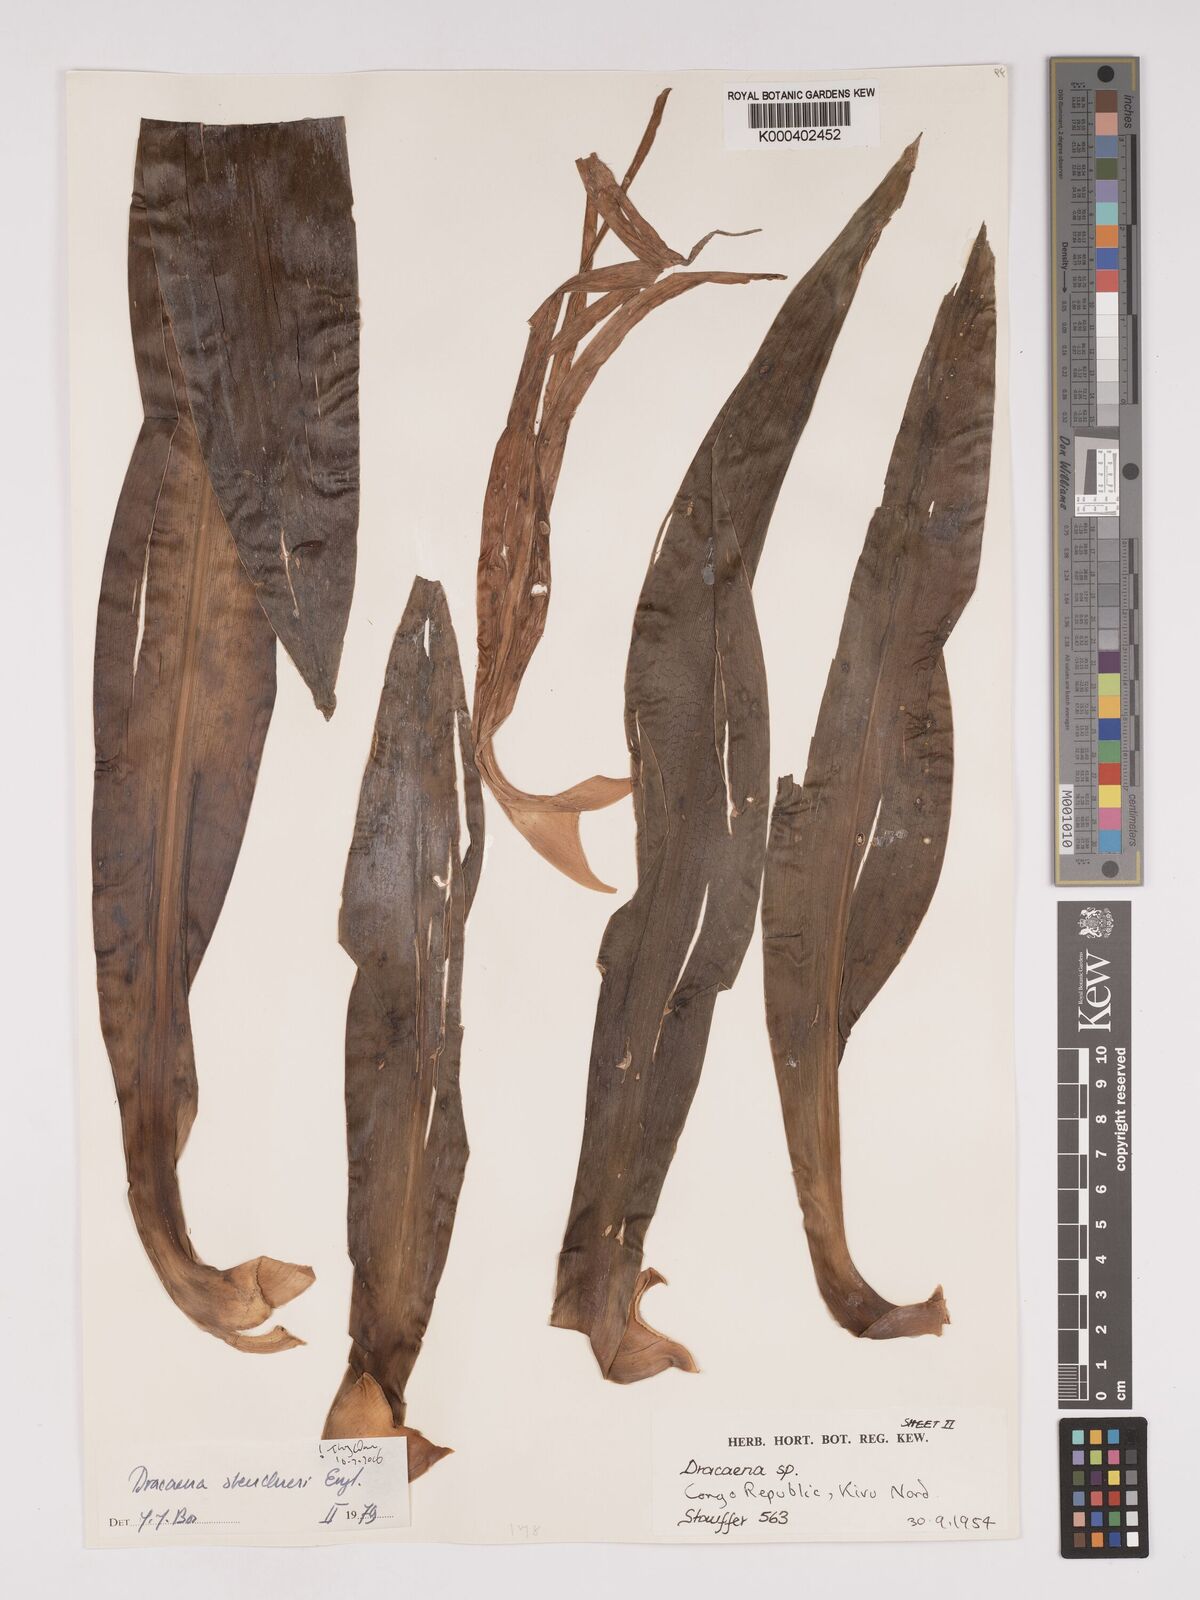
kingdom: Plantae
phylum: Tracheophyta
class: Liliopsida
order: Asparagales
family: Asparagaceae
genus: Dracaena
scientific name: Dracaena steudneri
